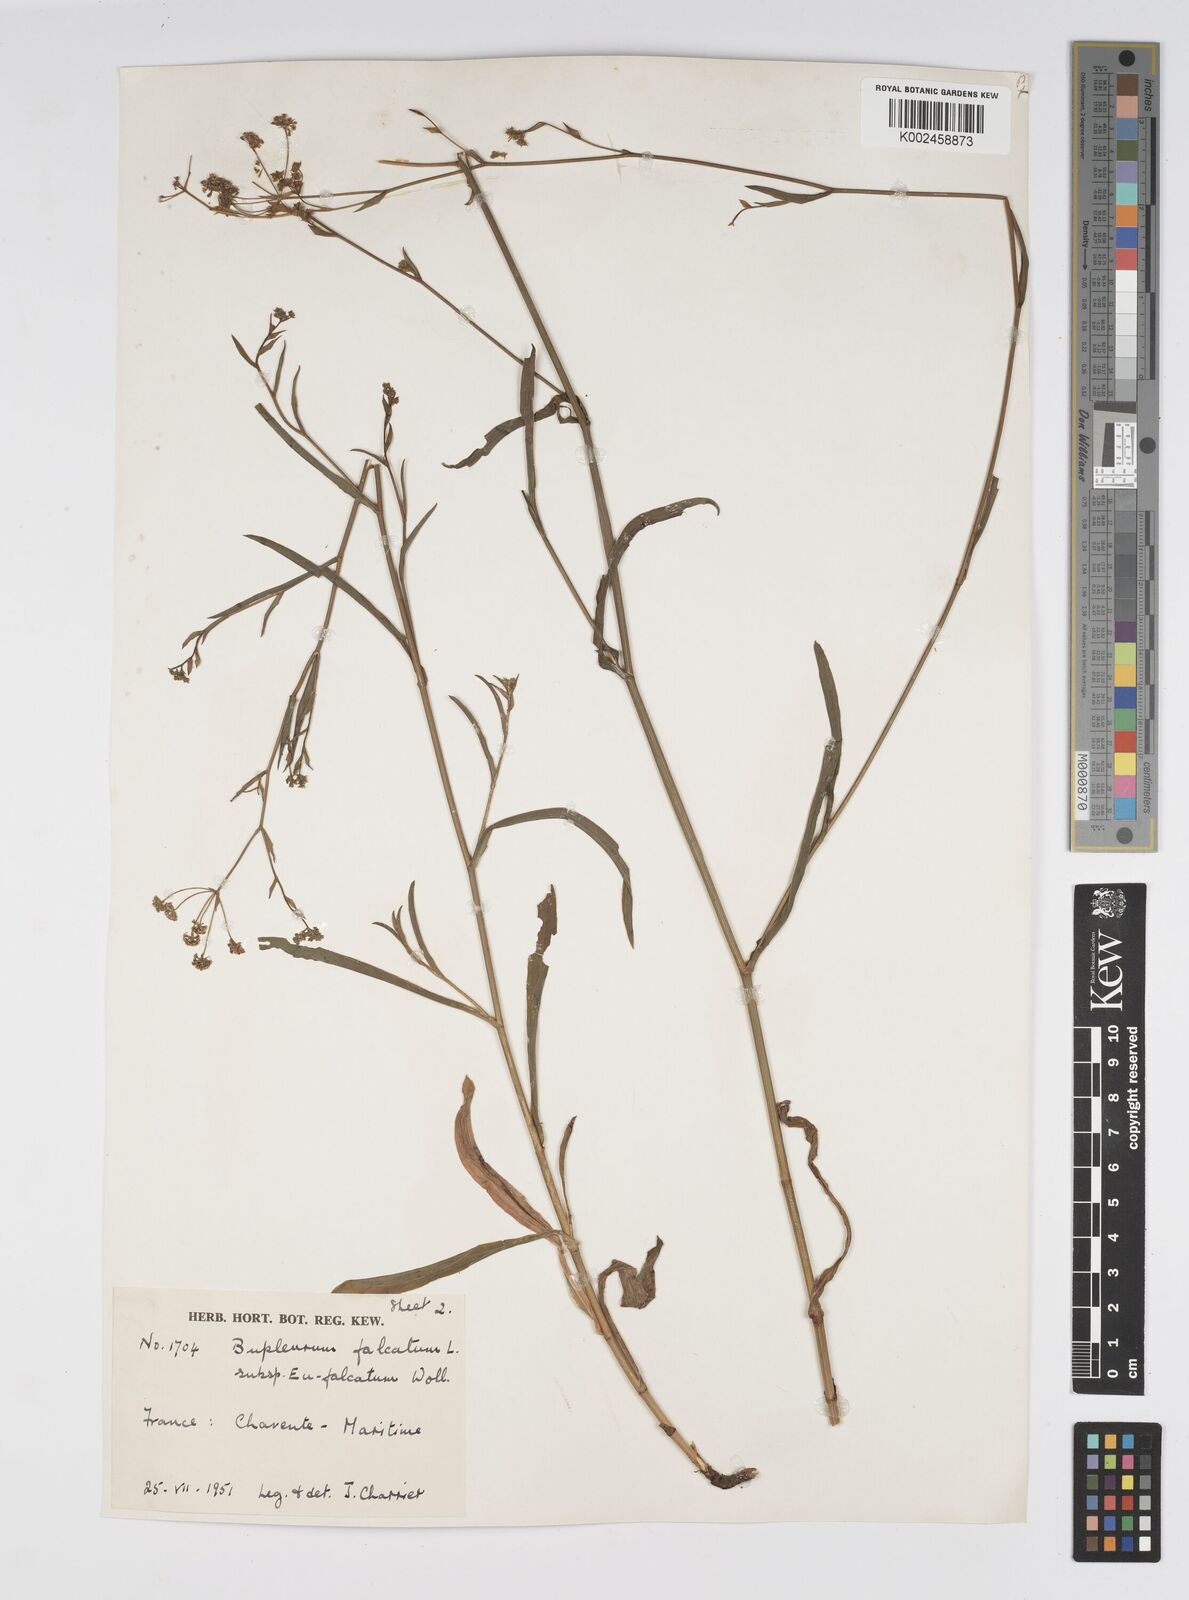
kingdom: Plantae
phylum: Tracheophyta
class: Magnoliopsida
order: Apiales
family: Apiaceae
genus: Bupleurum
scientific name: Bupleurum falcatum
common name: Sickle-leaved hare's-ear
